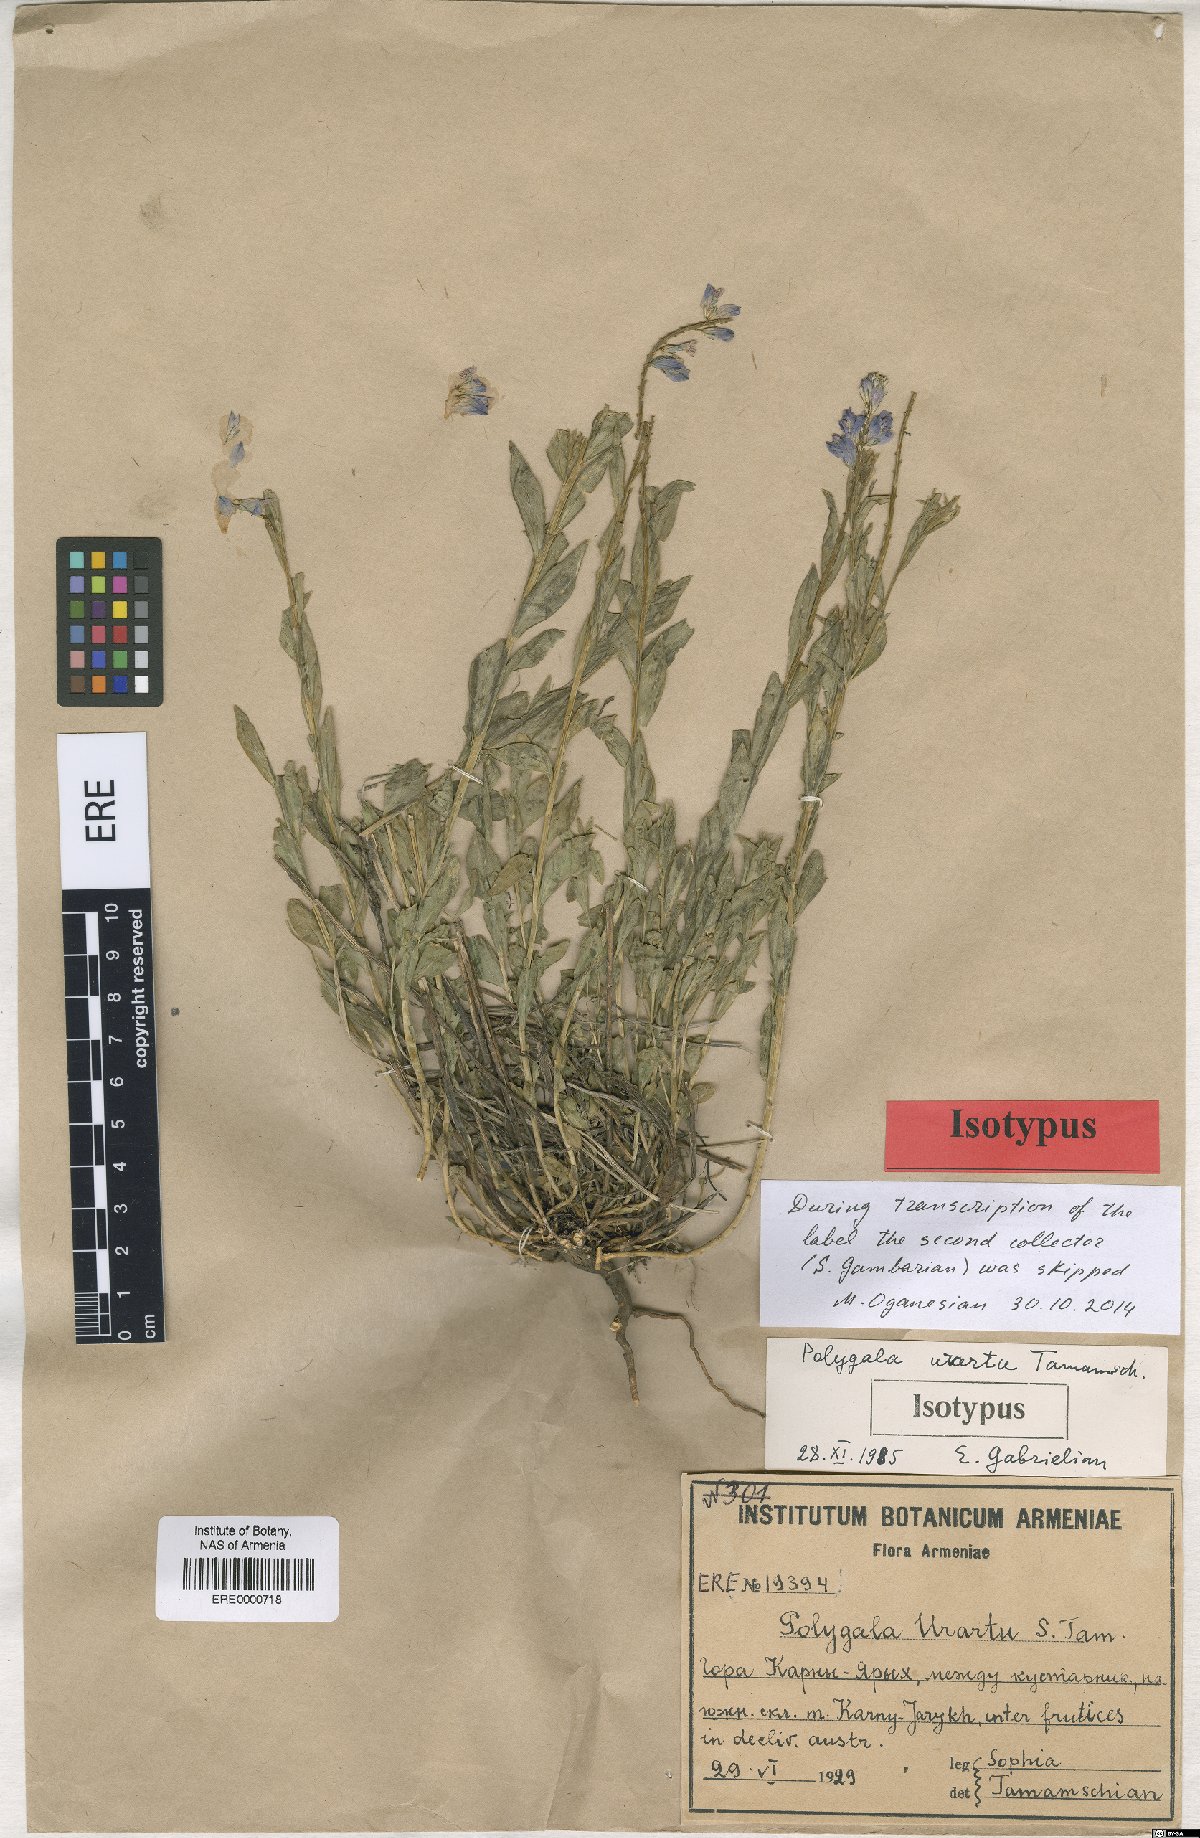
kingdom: Plantae
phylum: Tracheophyta
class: Magnoliopsida
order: Fabales
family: Polygalaceae
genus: Polygala
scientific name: Polygala urartu
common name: Urartuan milkwort
